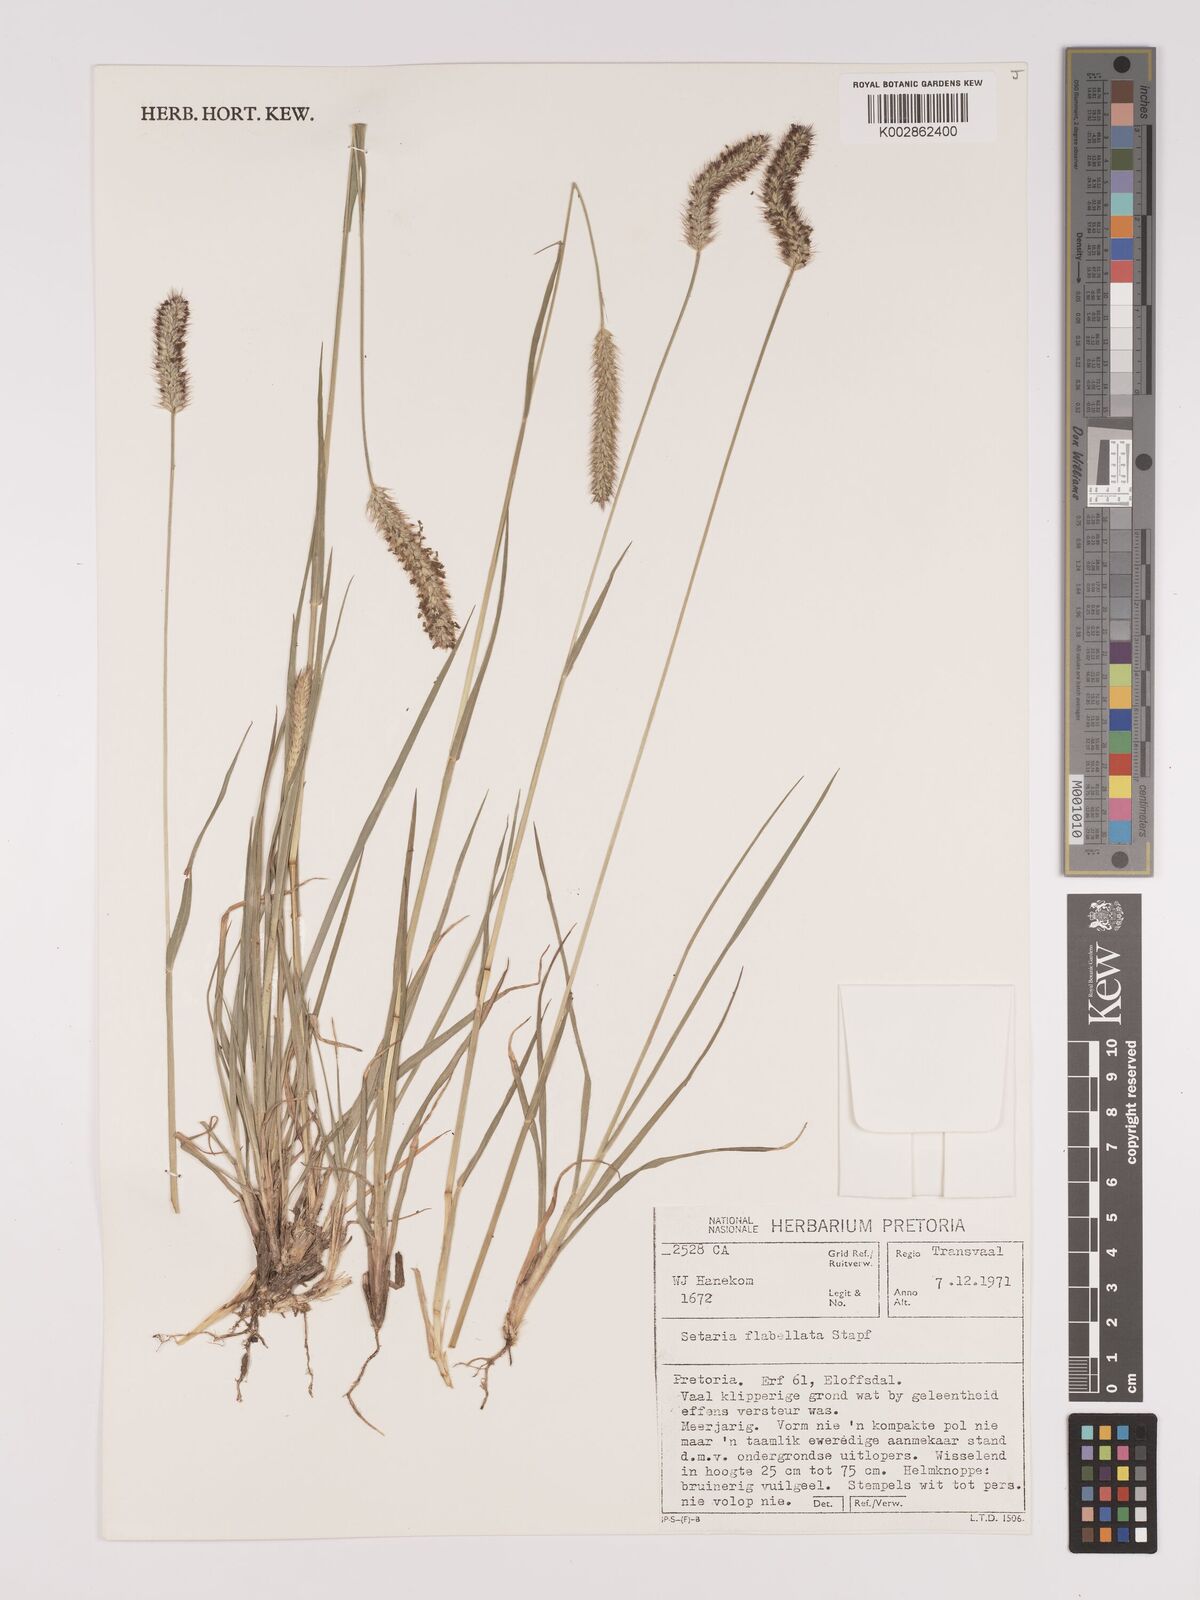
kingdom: Plantae
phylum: Tracheophyta
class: Liliopsida
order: Poales
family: Poaceae
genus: Setaria
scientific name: Setaria sphacelata
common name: African bristlegrass
